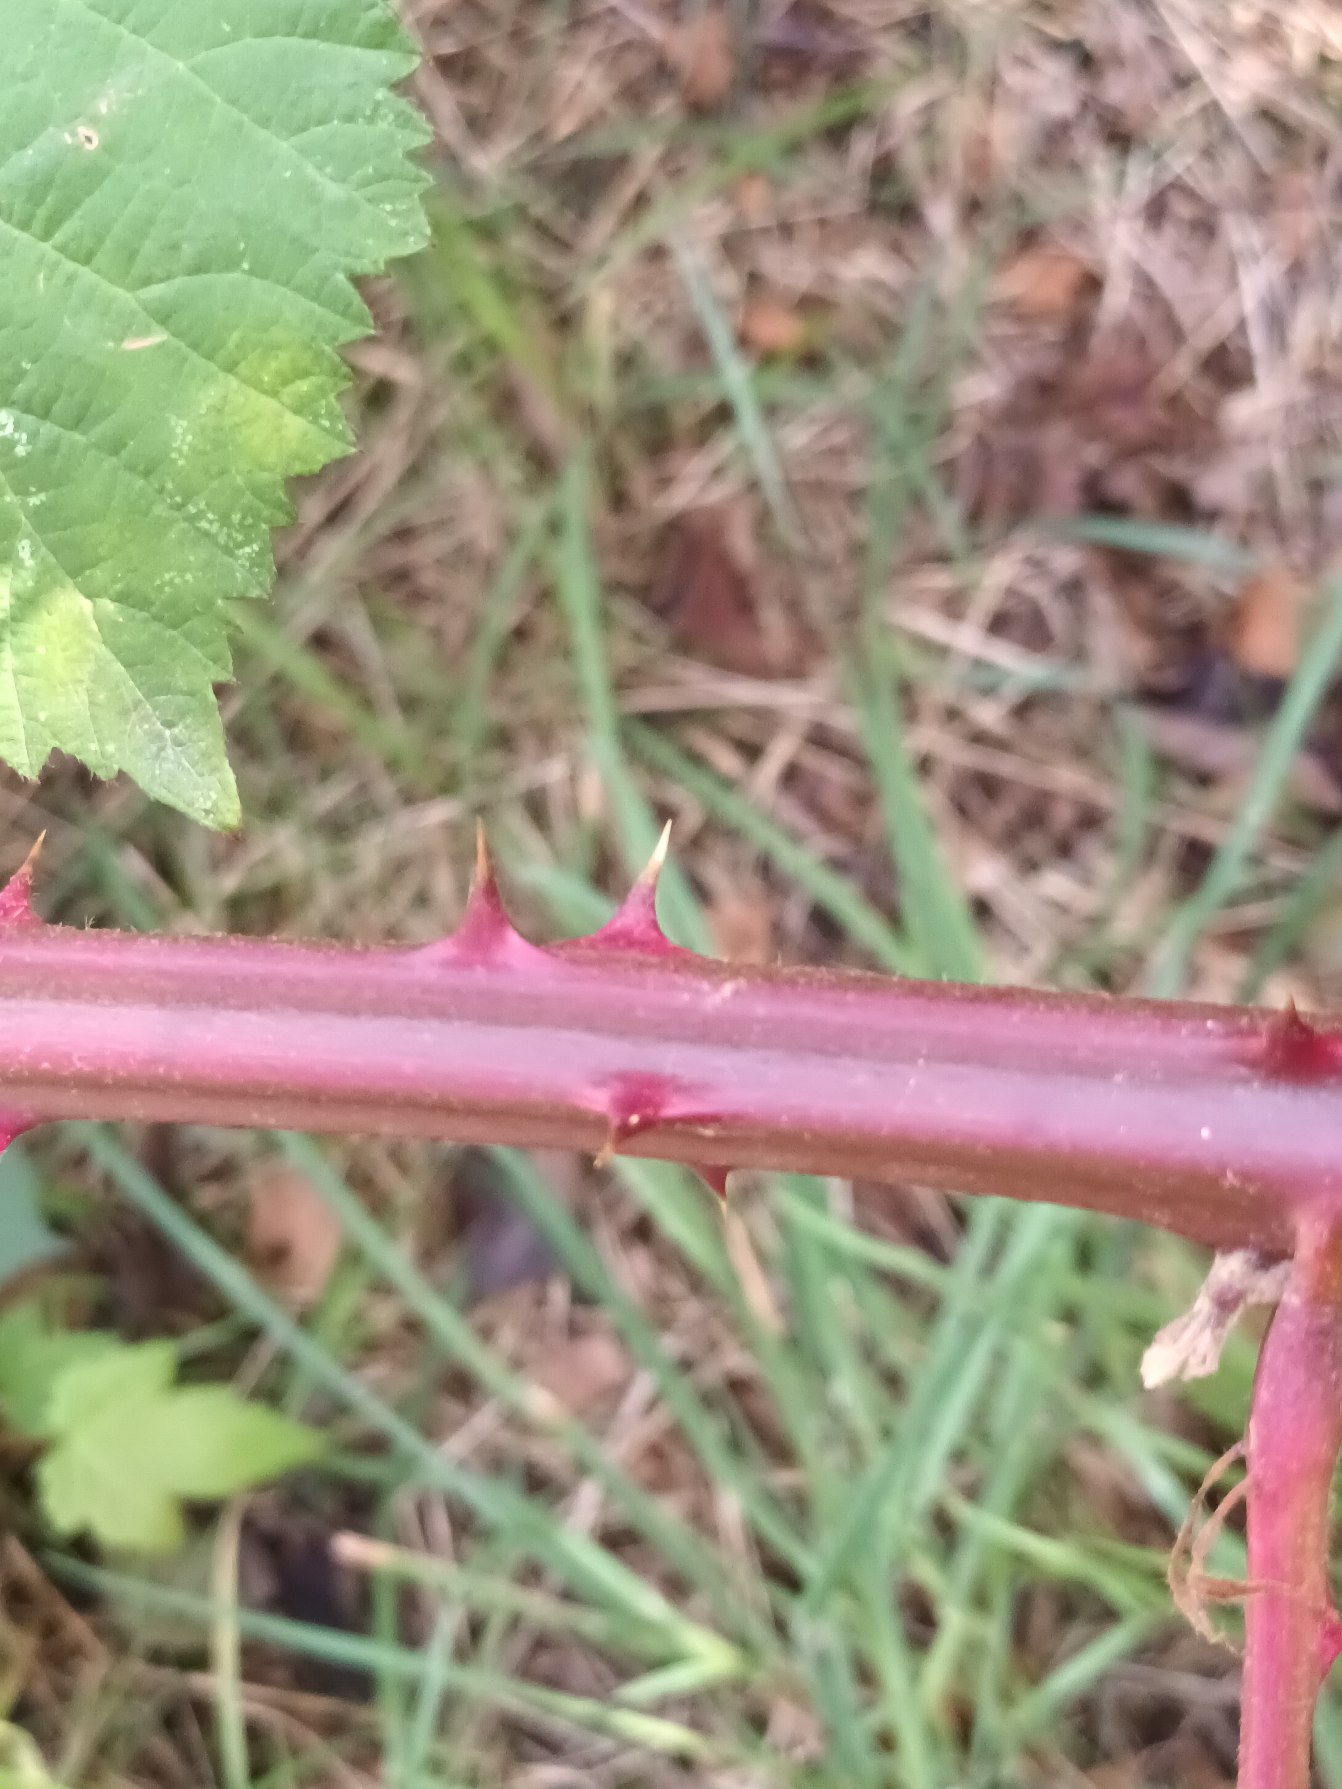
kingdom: Plantae
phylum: Tracheophyta
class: Magnoliopsida
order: Rosales
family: Rosaceae
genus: Rubus
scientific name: Rubus armeniacus
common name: Armensk brombær
